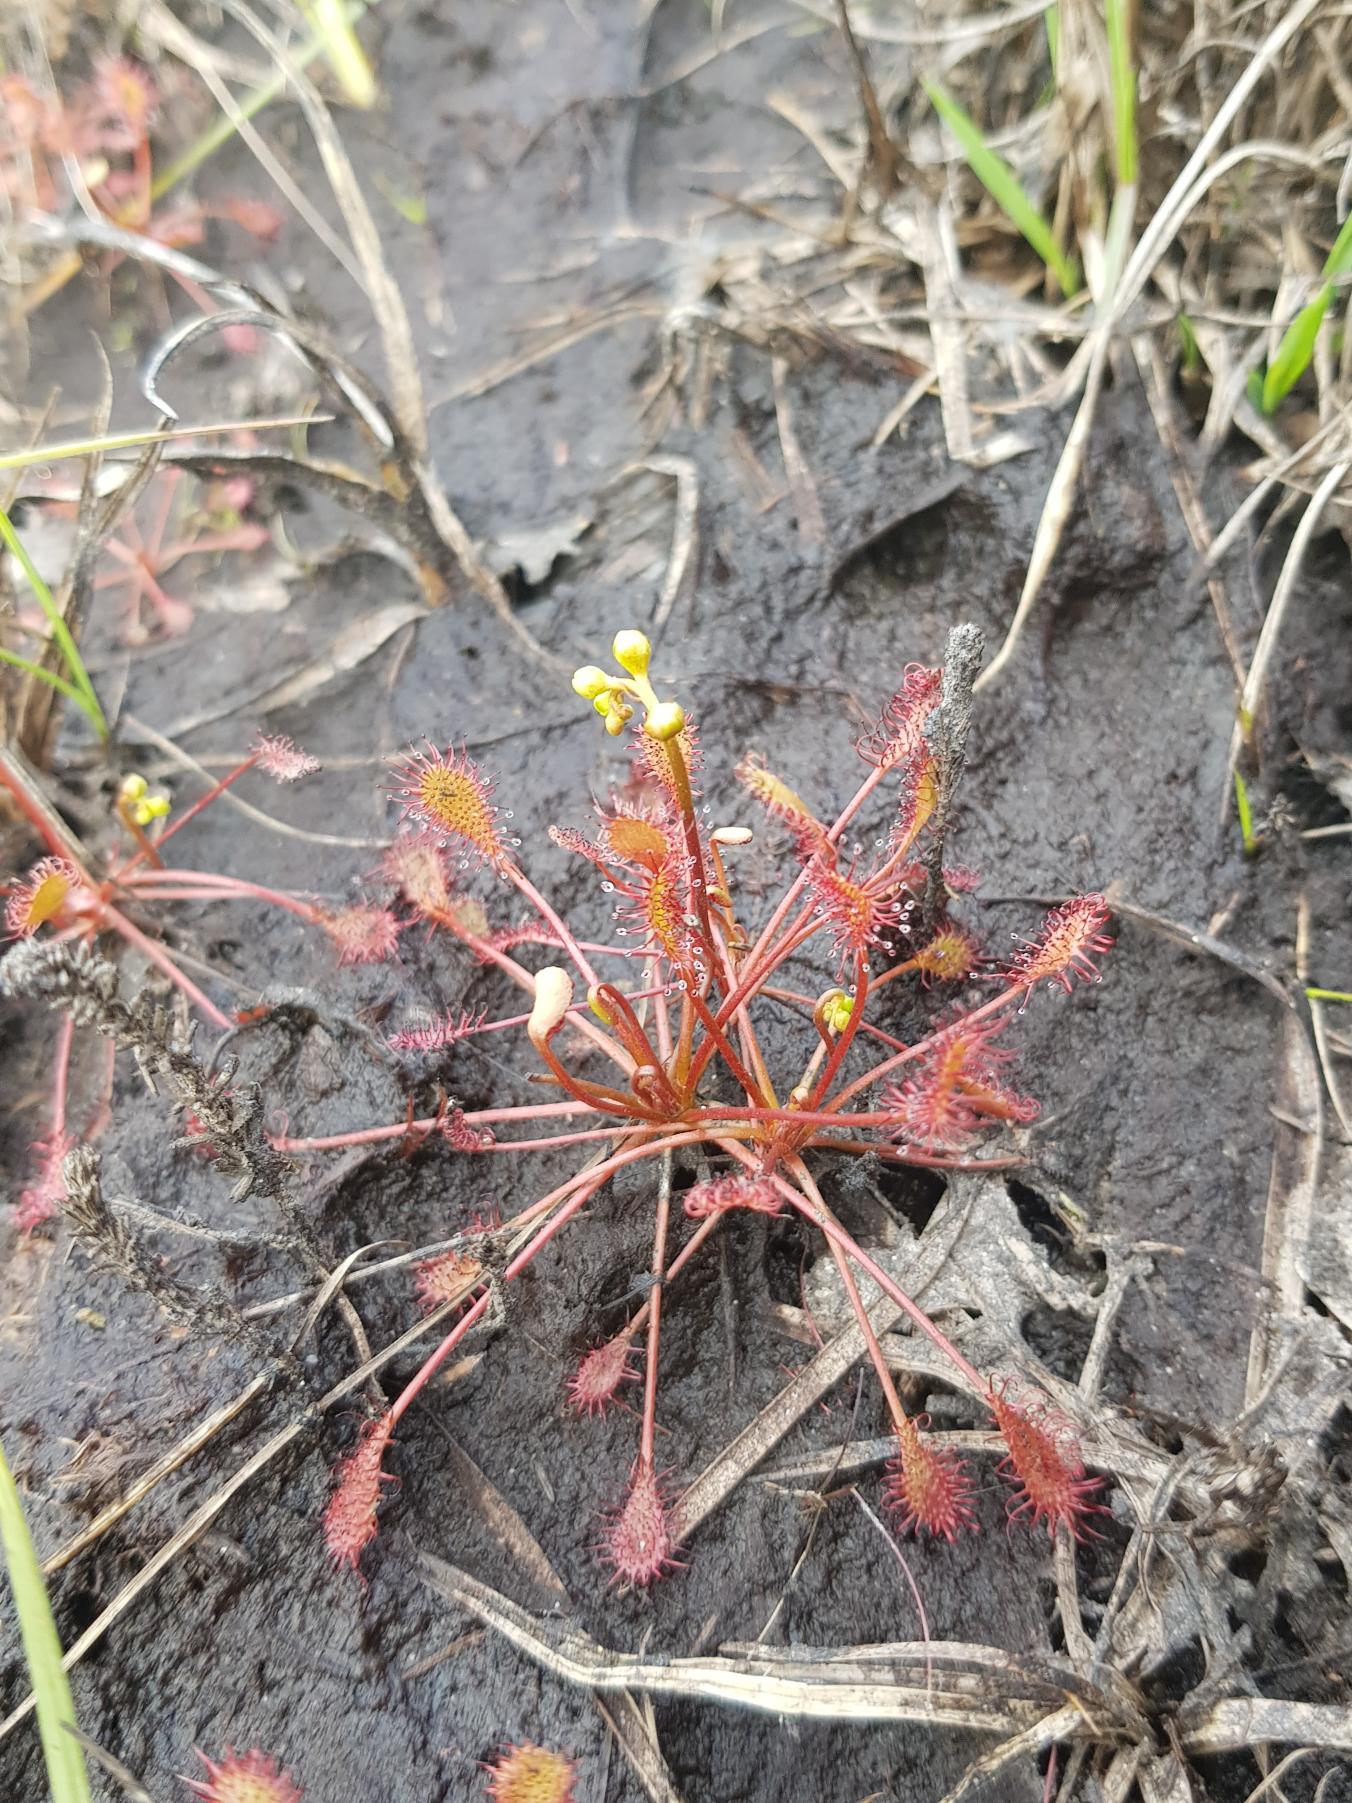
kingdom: Plantae
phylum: Tracheophyta
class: Magnoliopsida
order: Caryophyllales
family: Droseraceae
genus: Drosera
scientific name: Drosera intermedia
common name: Liden soldug
